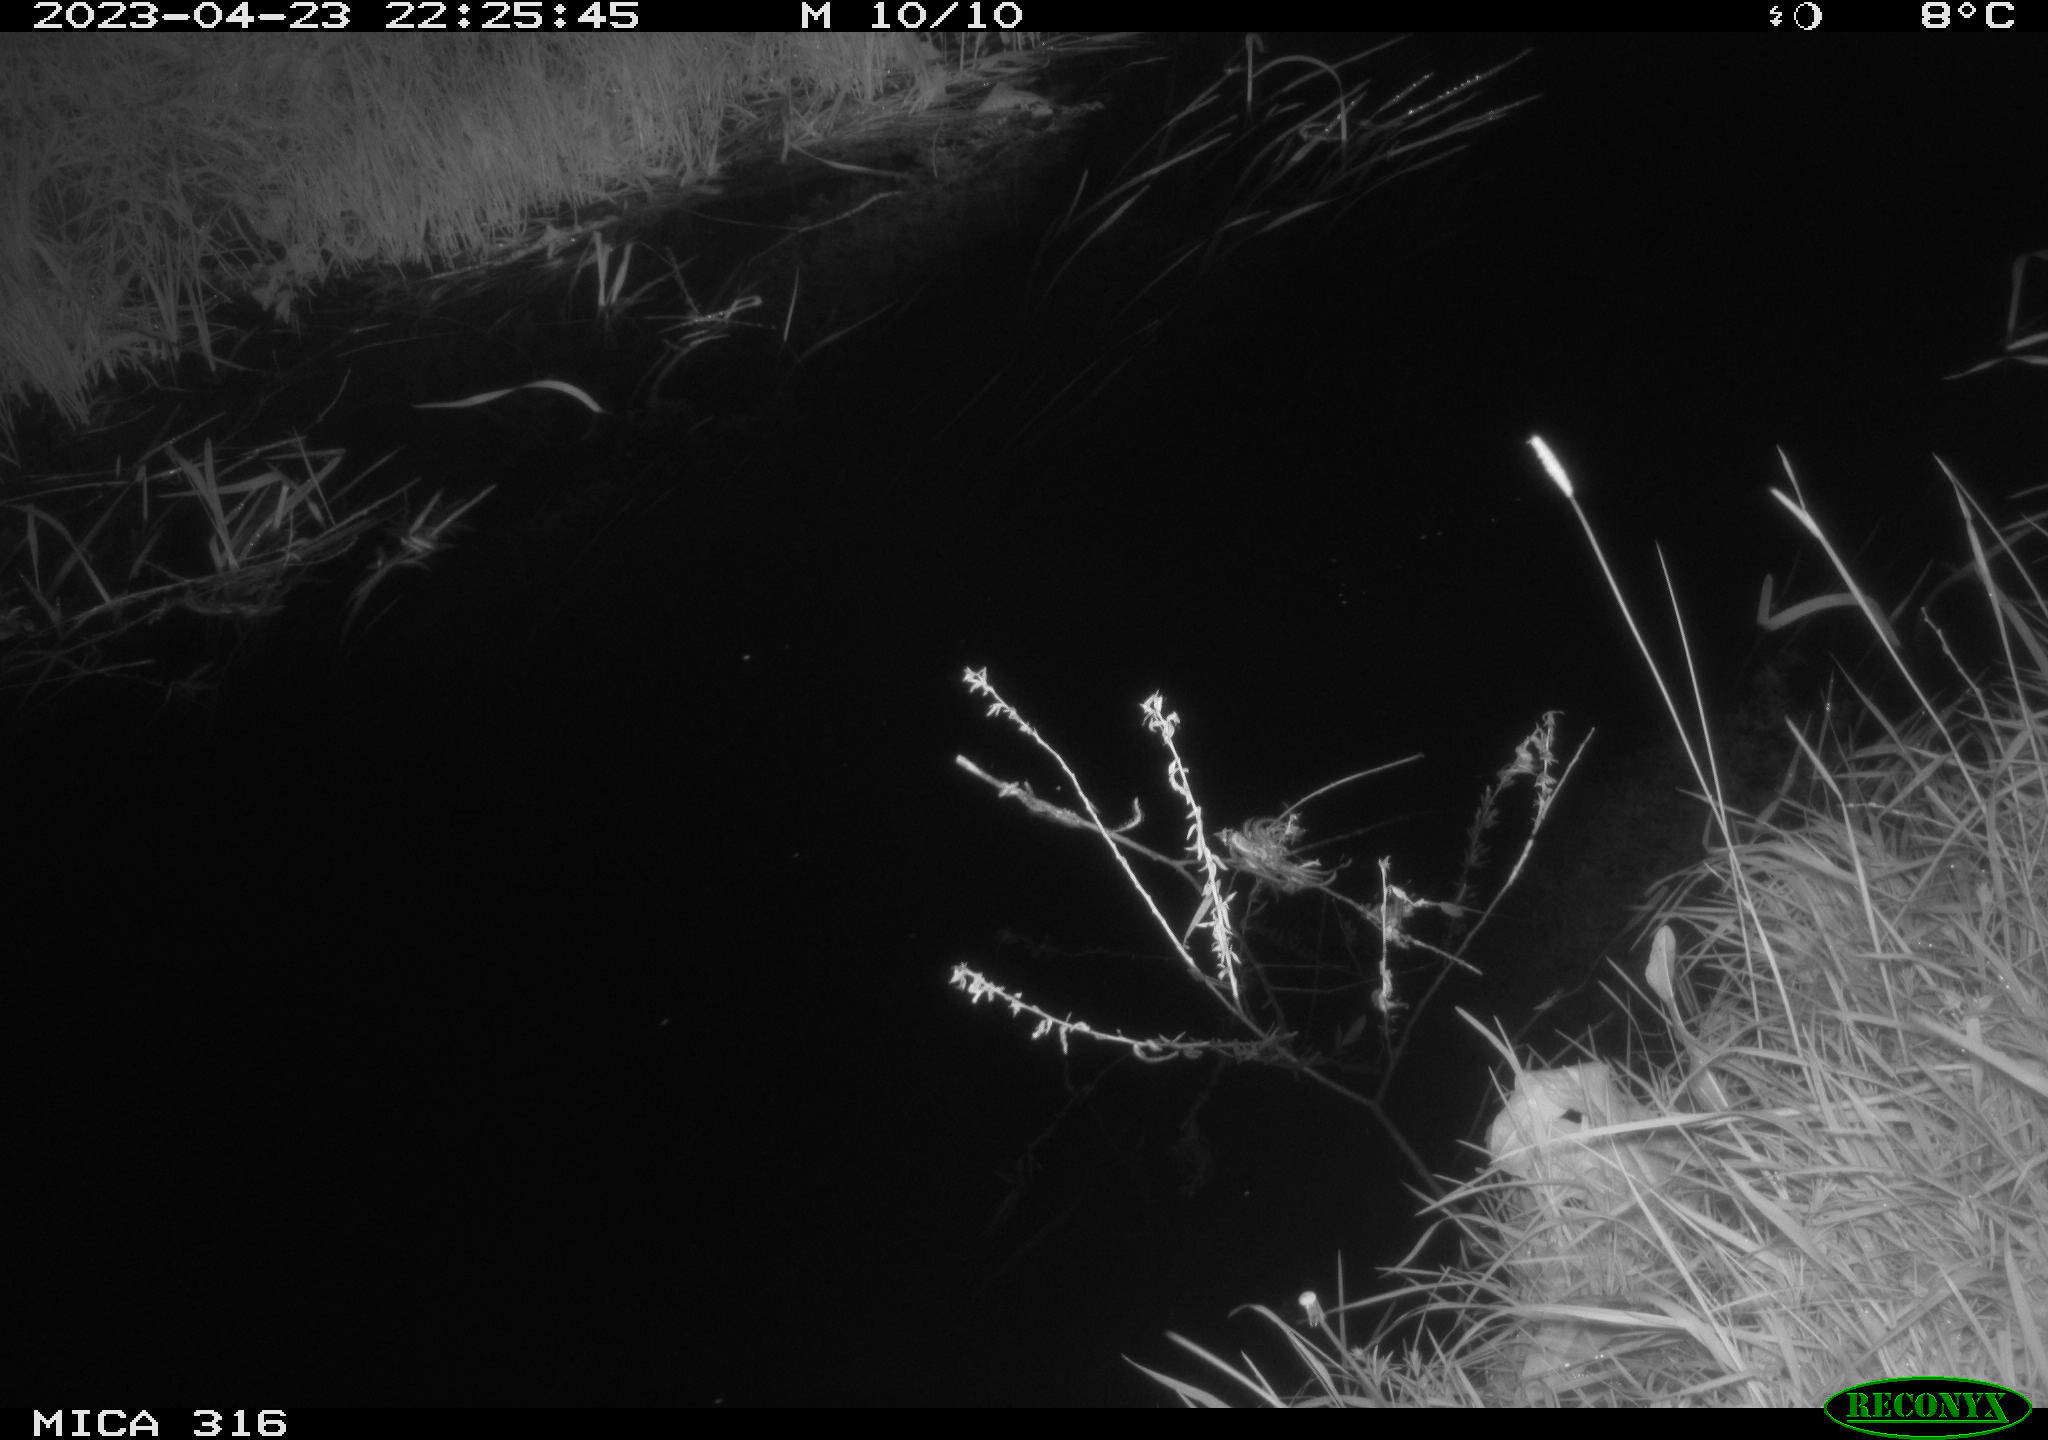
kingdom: Animalia
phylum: Chordata
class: Aves
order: Anseriformes
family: Anatidae
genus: Anas
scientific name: Anas
